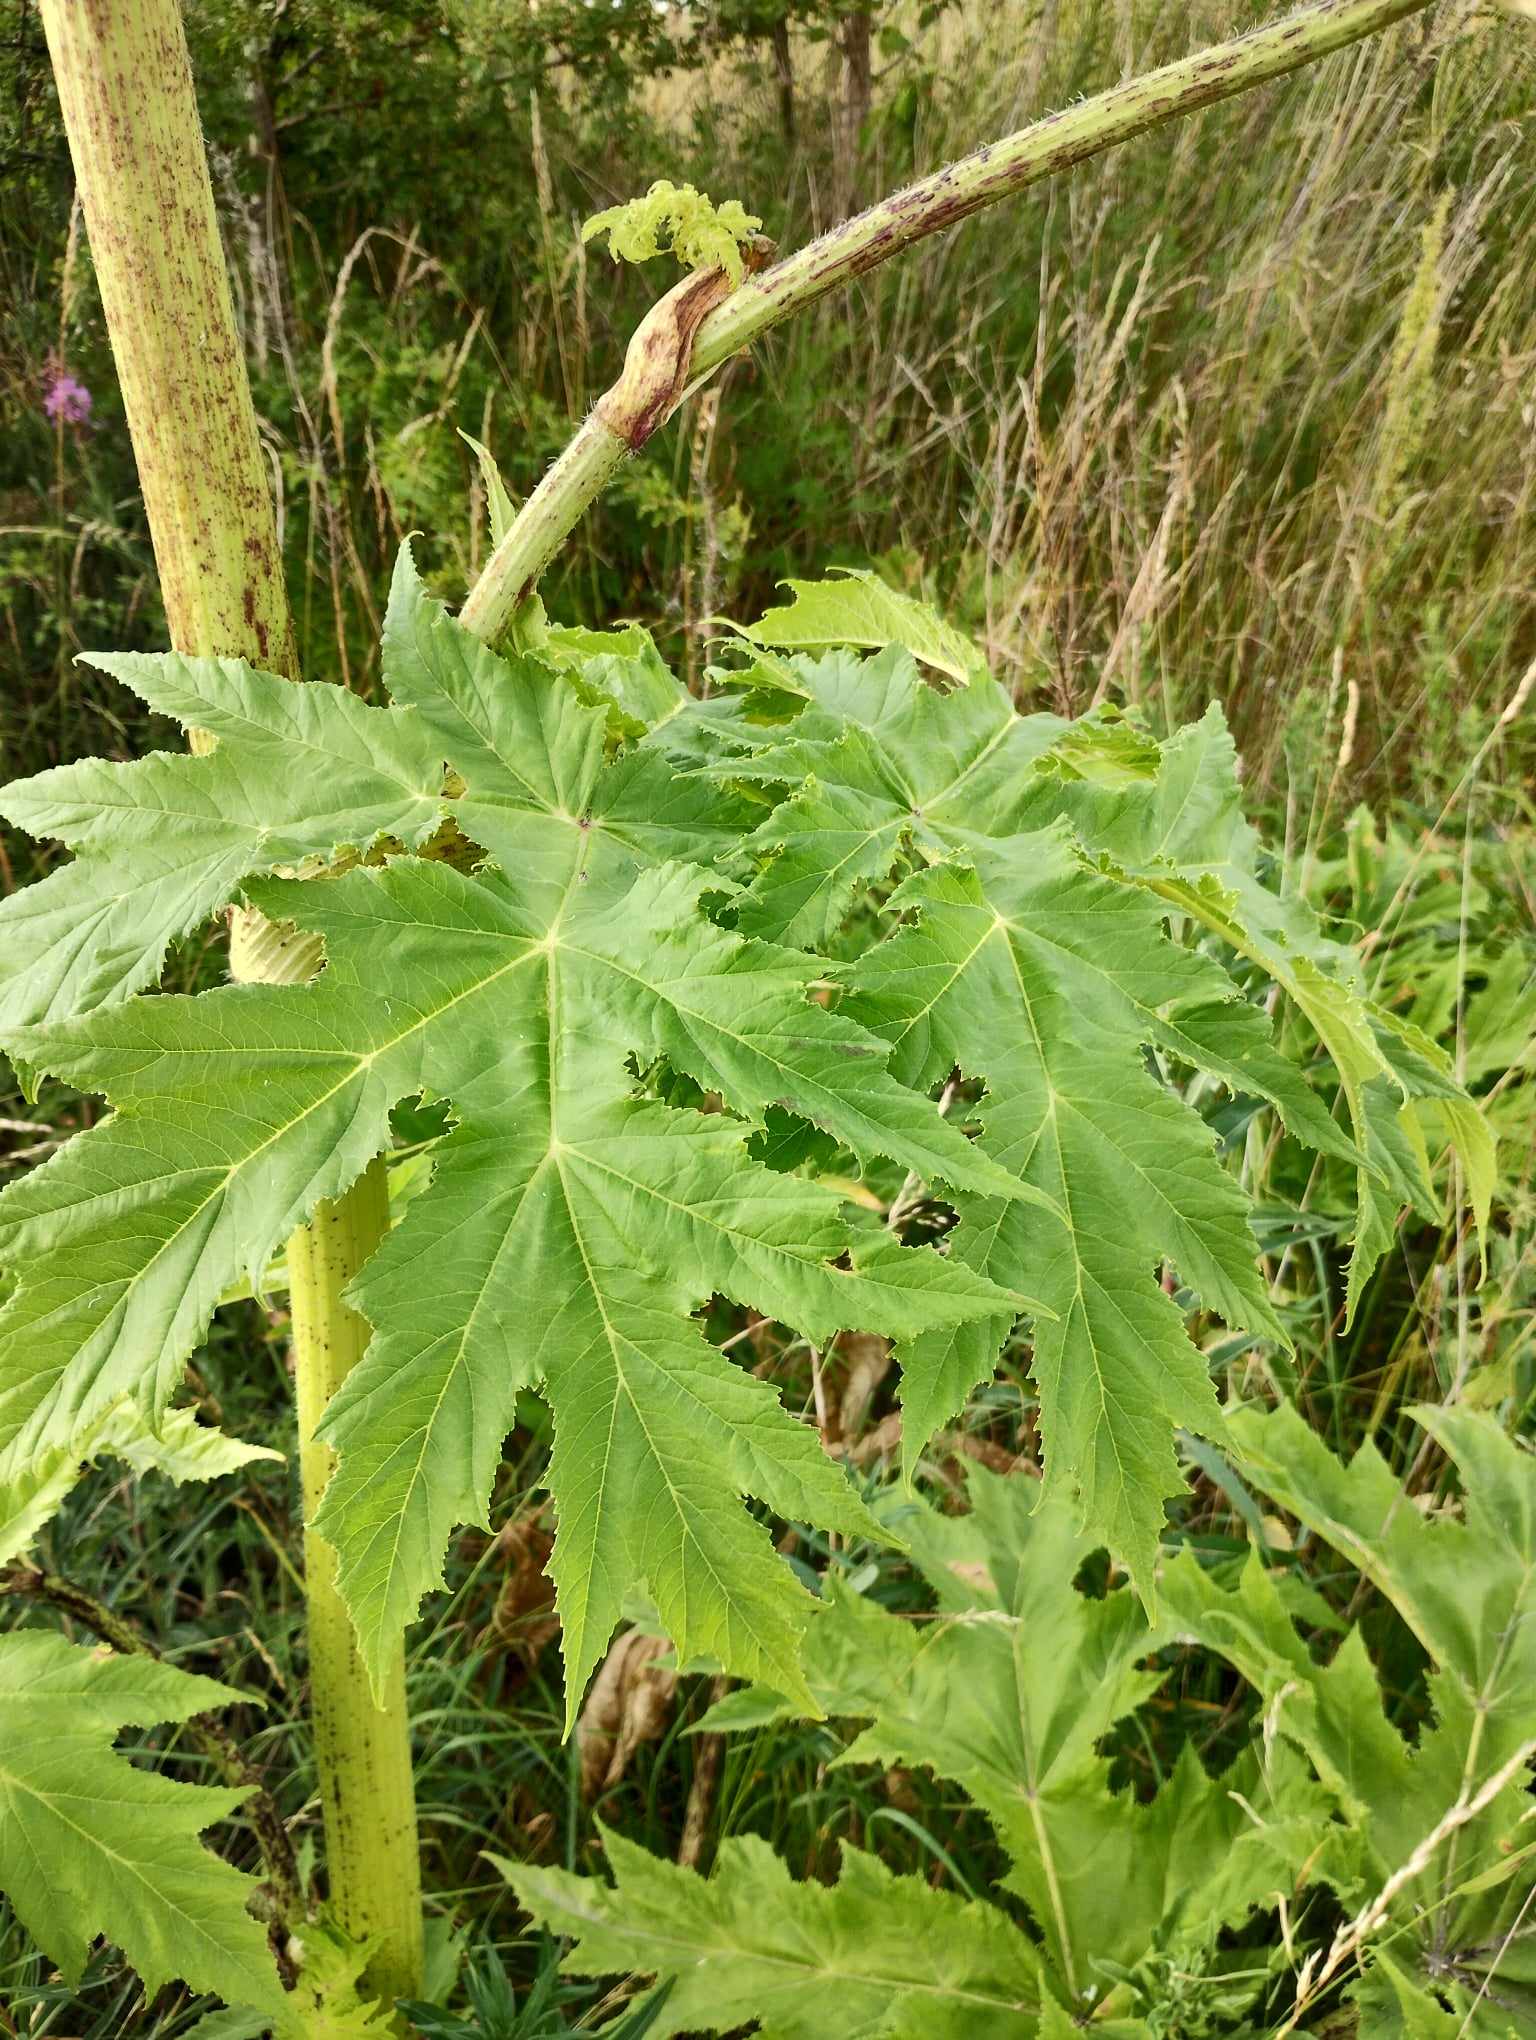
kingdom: Plantae
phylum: Tracheophyta
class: Magnoliopsida
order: Apiales
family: Apiaceae
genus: Heracleum
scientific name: Heracleum mantegazzianum
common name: Kæmpe-bjørneklo
